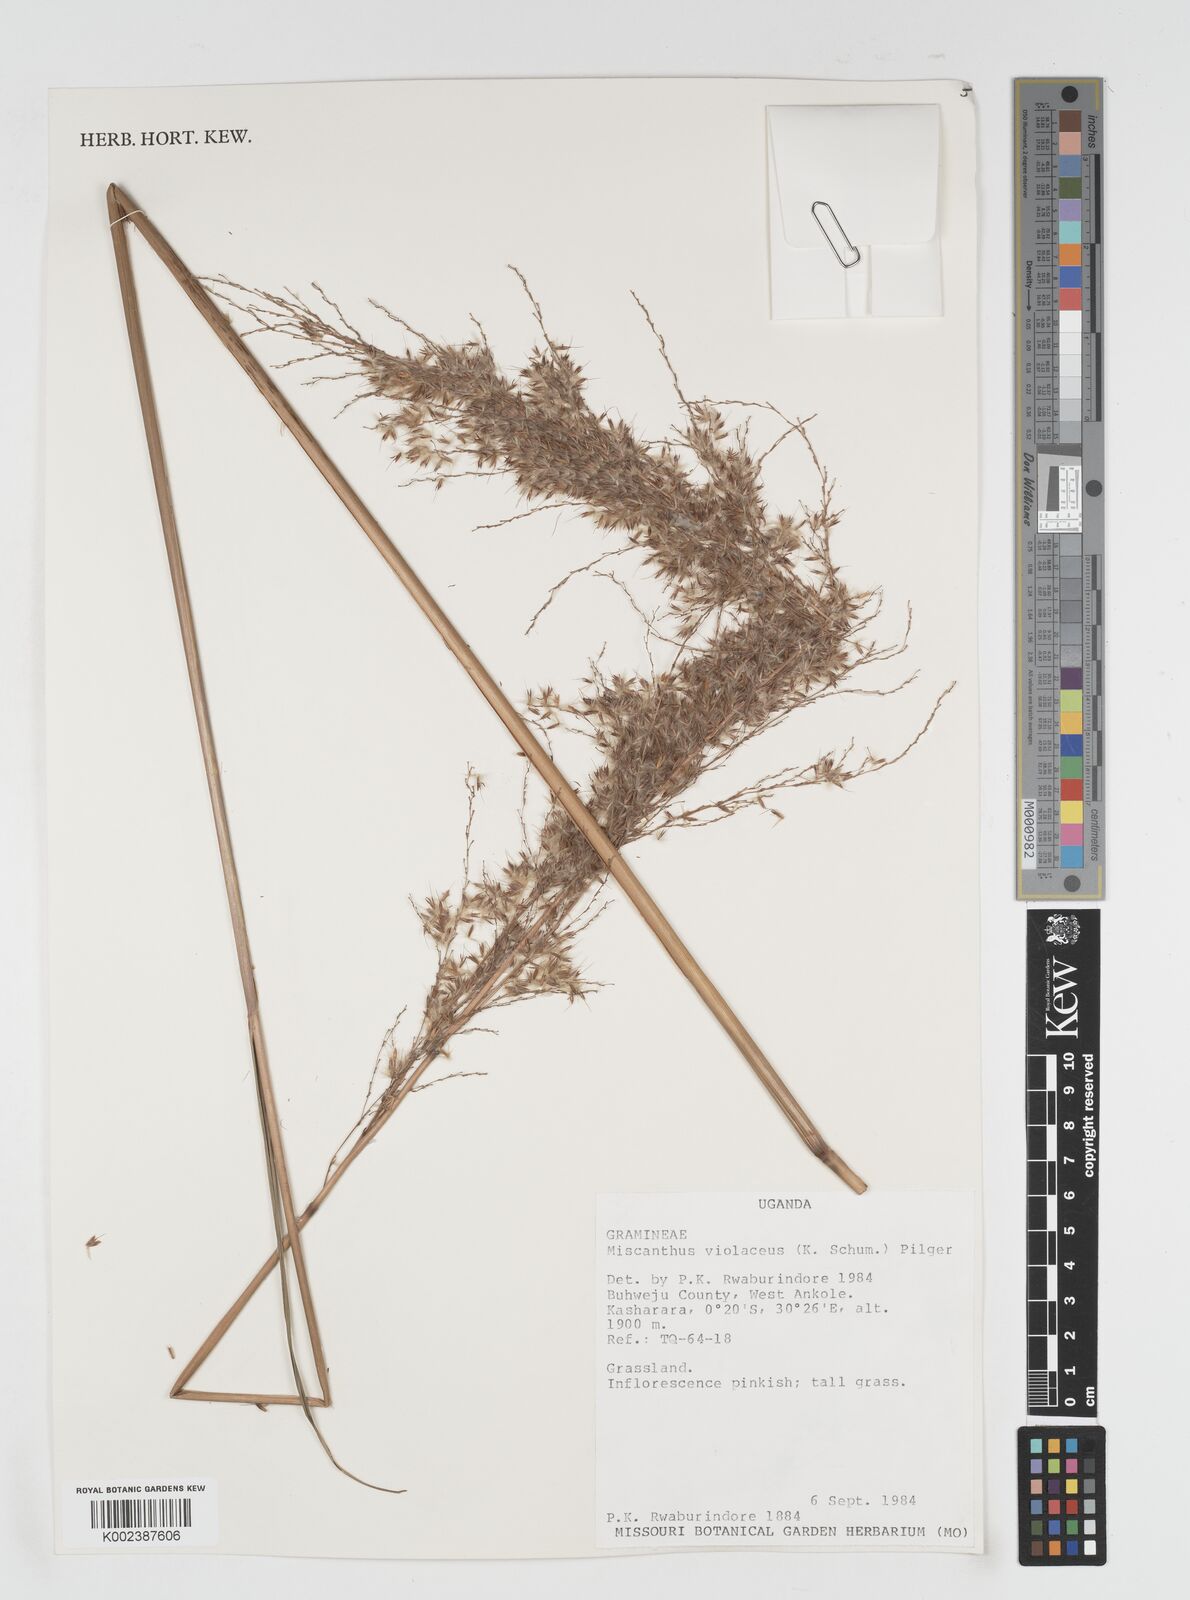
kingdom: Plantae
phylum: Tracheophyta
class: Liliopsida
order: Poales
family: Poaceae
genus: Miscanthidium
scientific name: Miscanthidium violaceum
